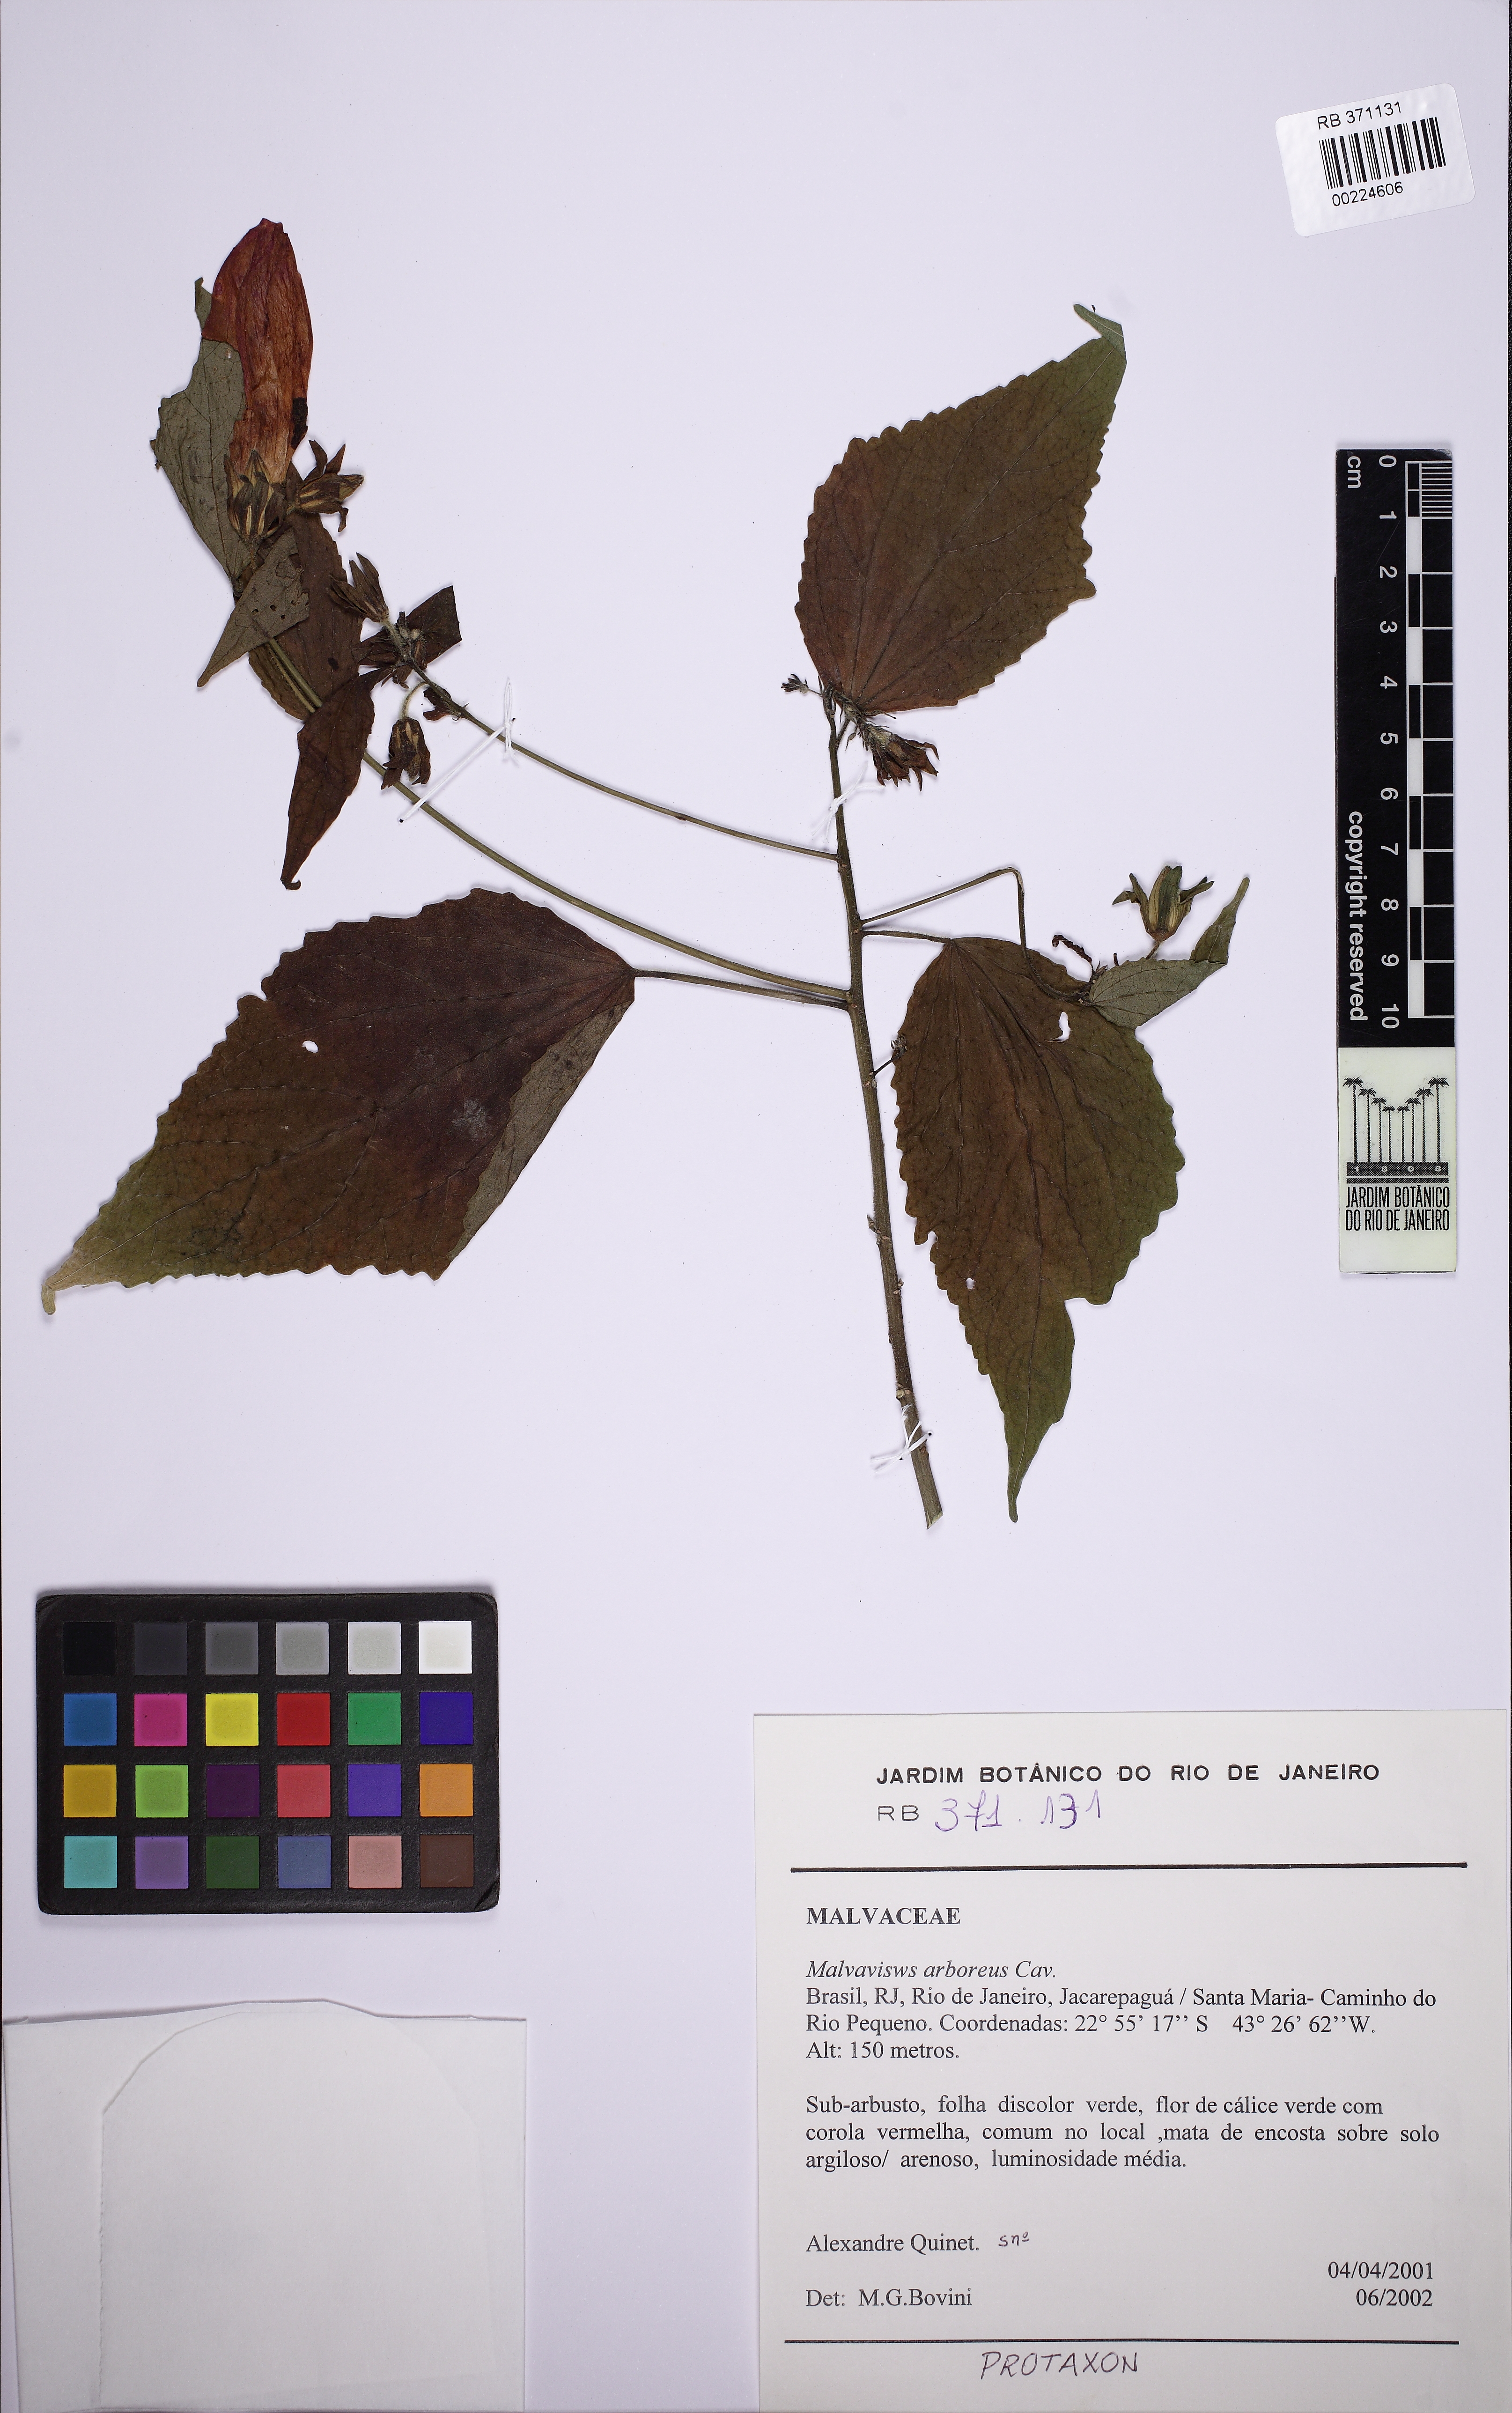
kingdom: Plantae
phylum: Tracheophyta
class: Magnoliopsida
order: Malvales
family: Malvaceae
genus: Malvaviscus
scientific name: Malvaviscus arboreus
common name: Wax mallow
